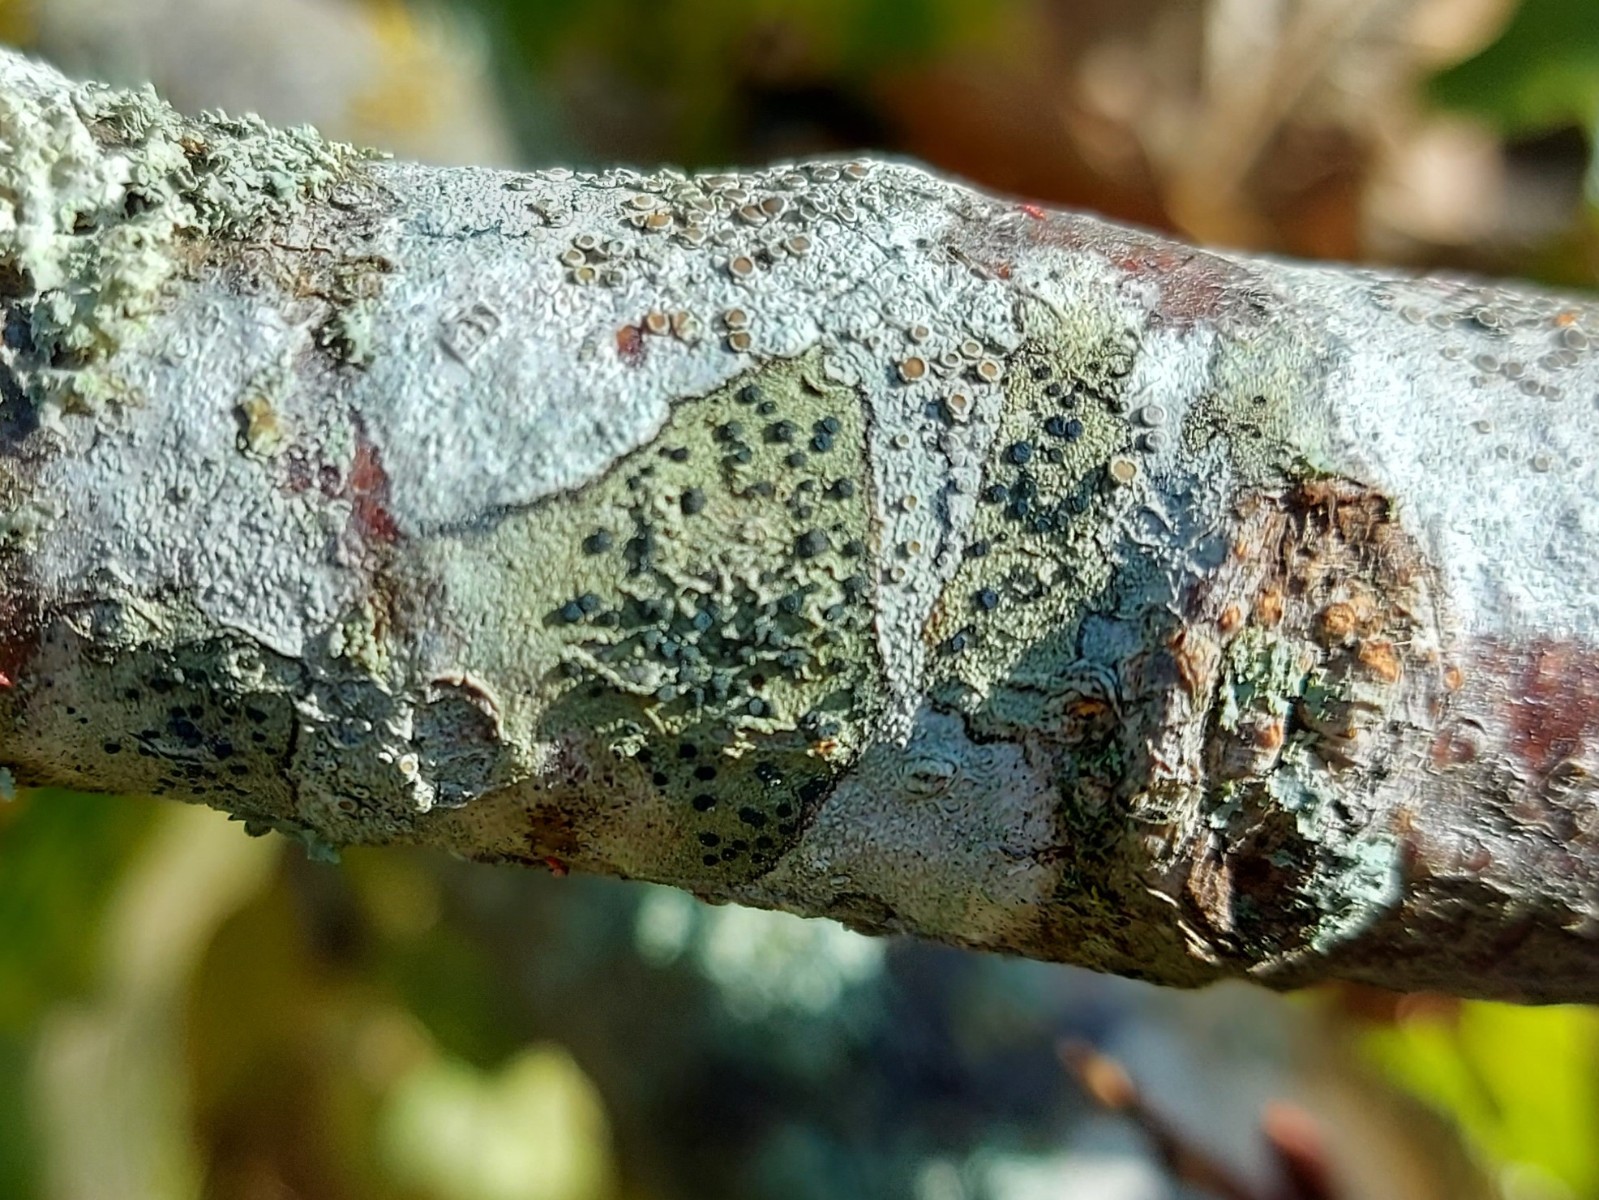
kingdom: Fungi
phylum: Ascomycota
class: Lecanoromycetes
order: Lecanorales
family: Lecanoraceae
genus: Lecidella
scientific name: Lecidella elaeochroma
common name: grågrøn skivelav
